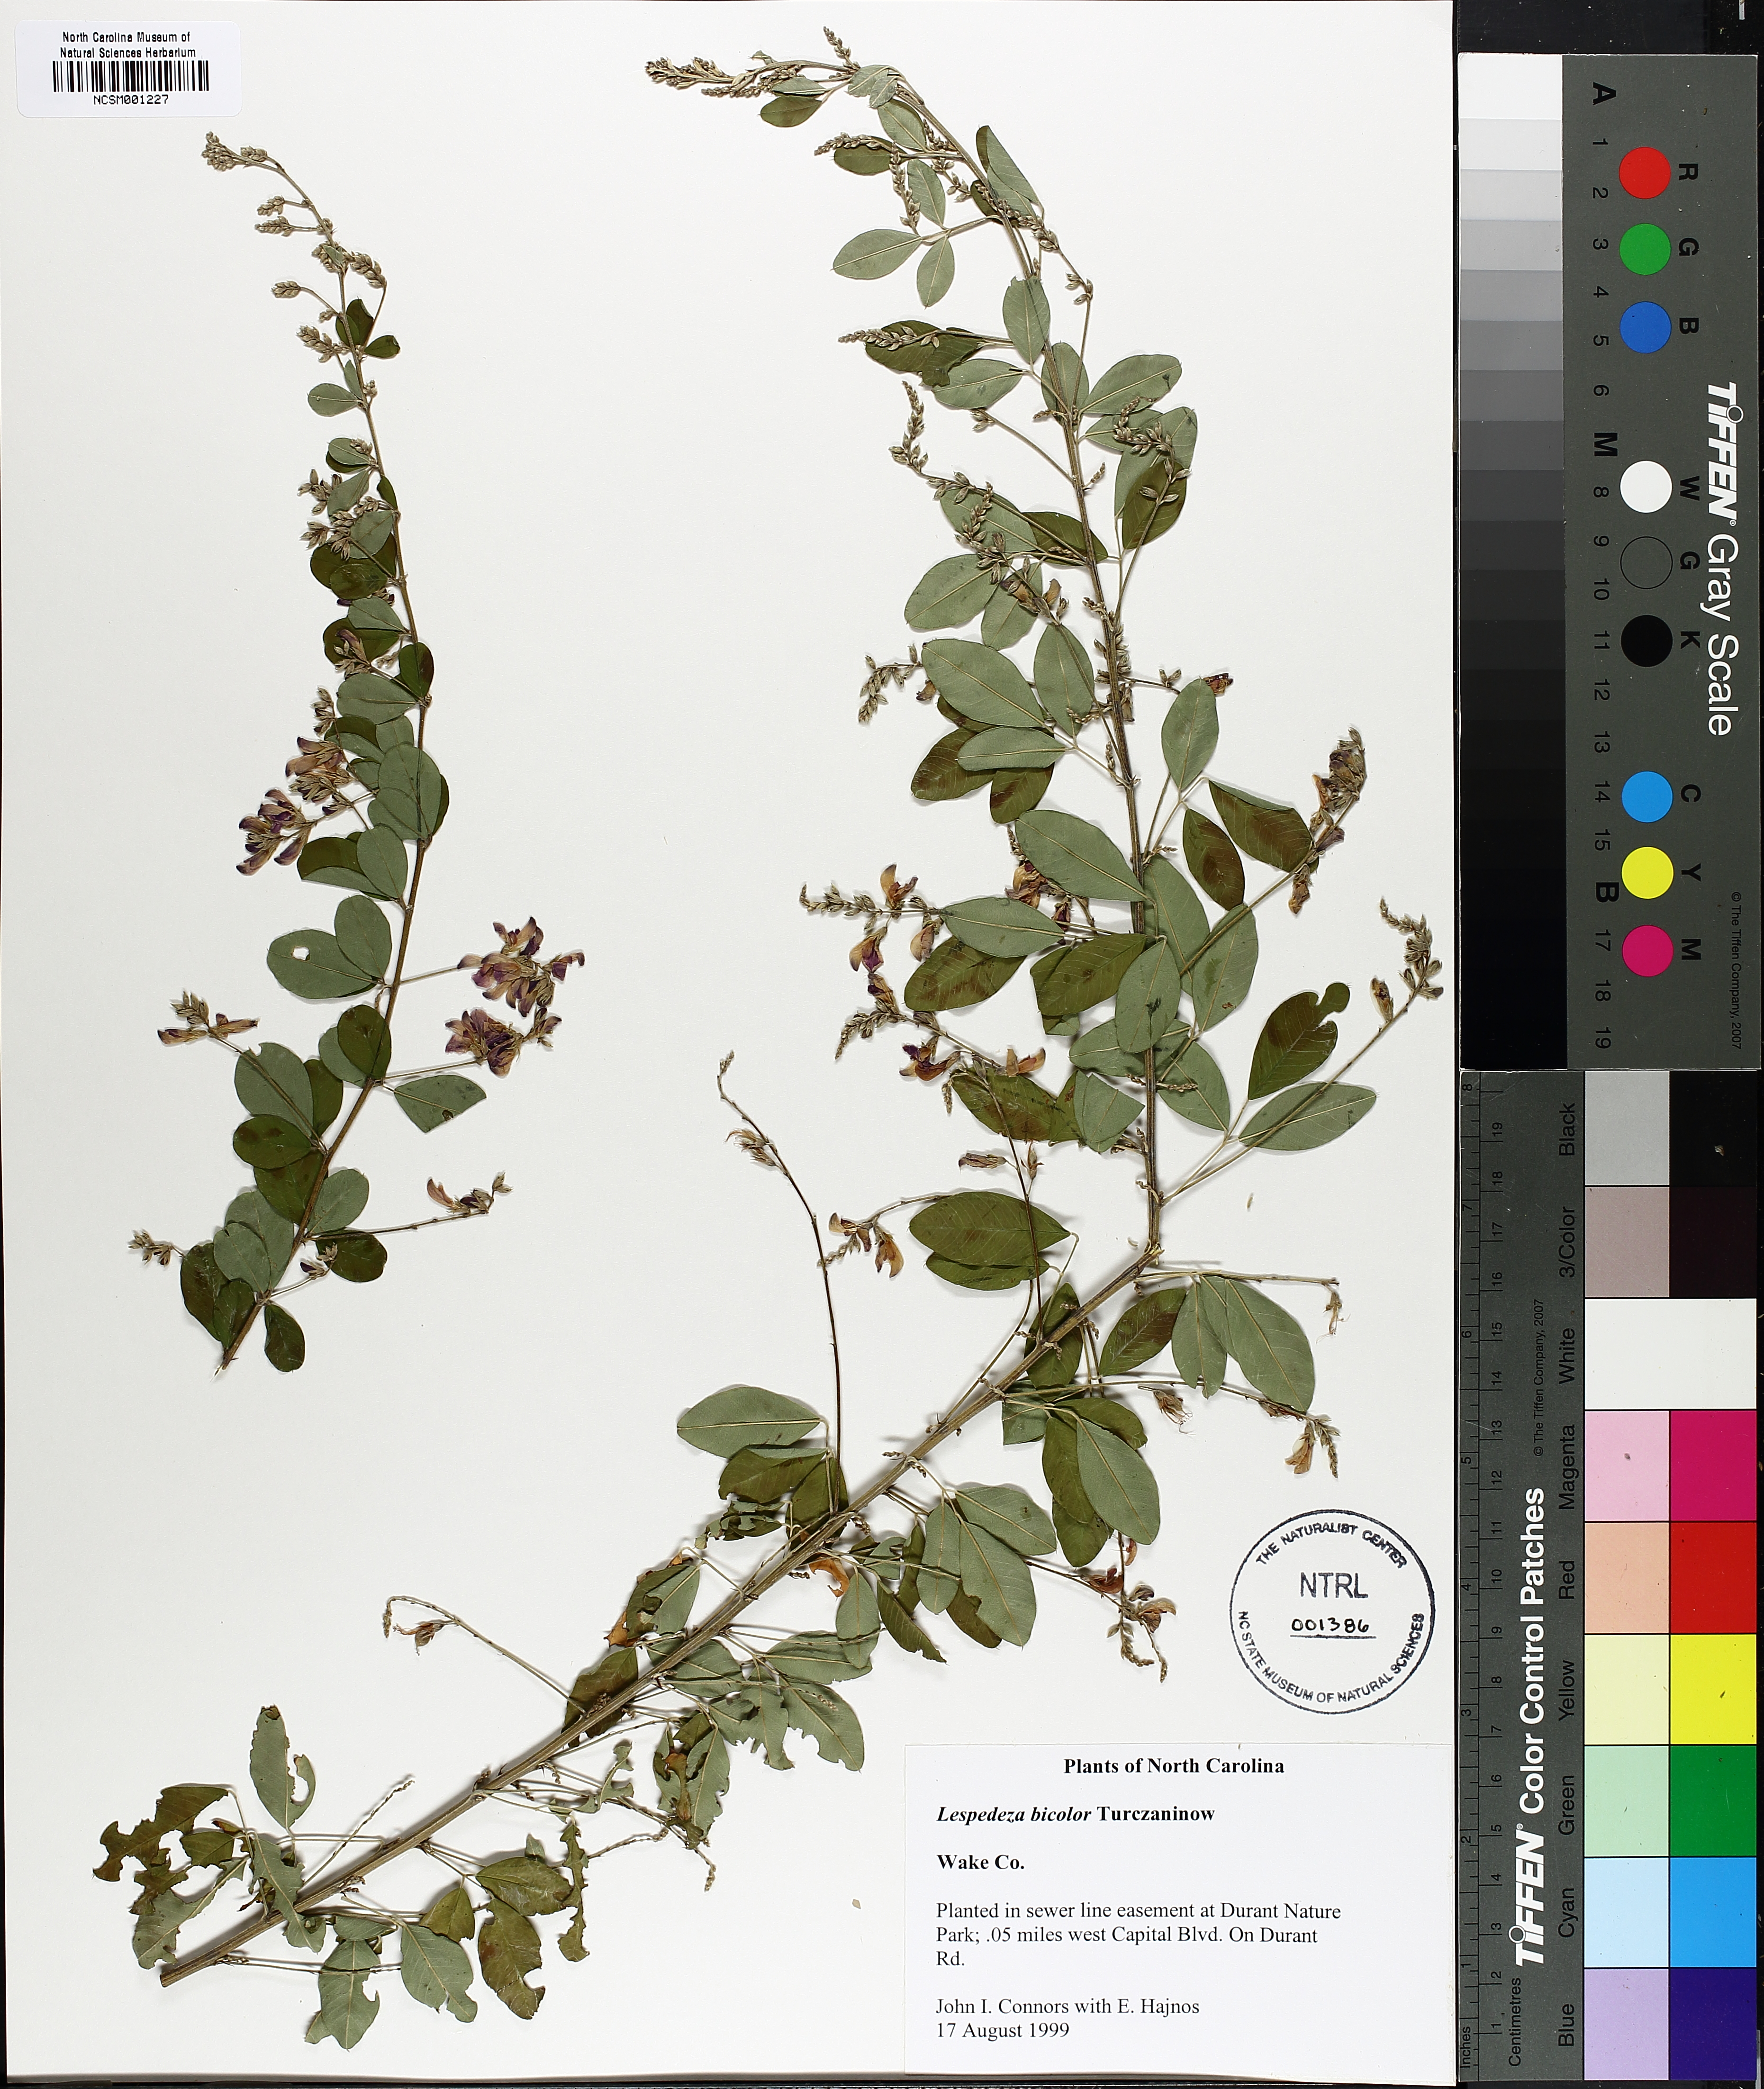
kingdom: Plantae
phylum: Tracheophyta
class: Magnoliopsida
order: Fabales
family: Fabaceae
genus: Lespedeza
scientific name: Lespedeza bicolor
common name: Shrub lespedeza
